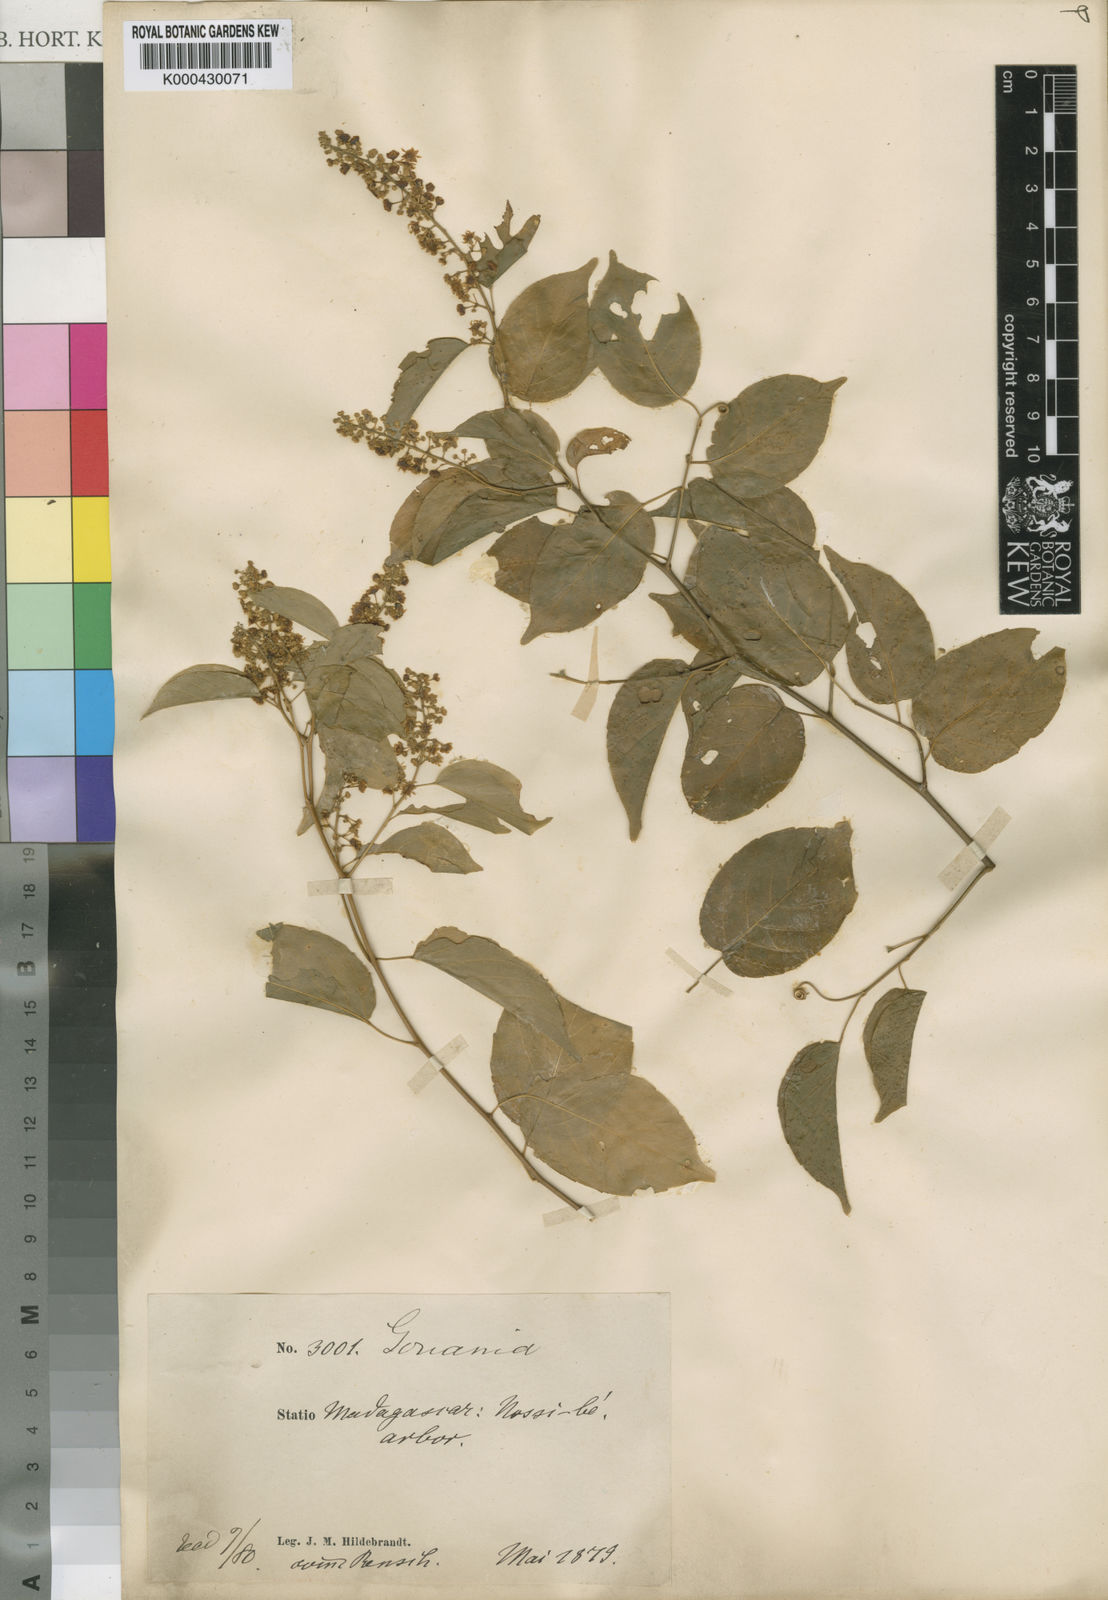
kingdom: Plantae
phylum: Tracheophyta
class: Magnoliopsida
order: Rosales
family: Rhamnaceae
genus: Gouania
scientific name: Gouania tiliifolia
